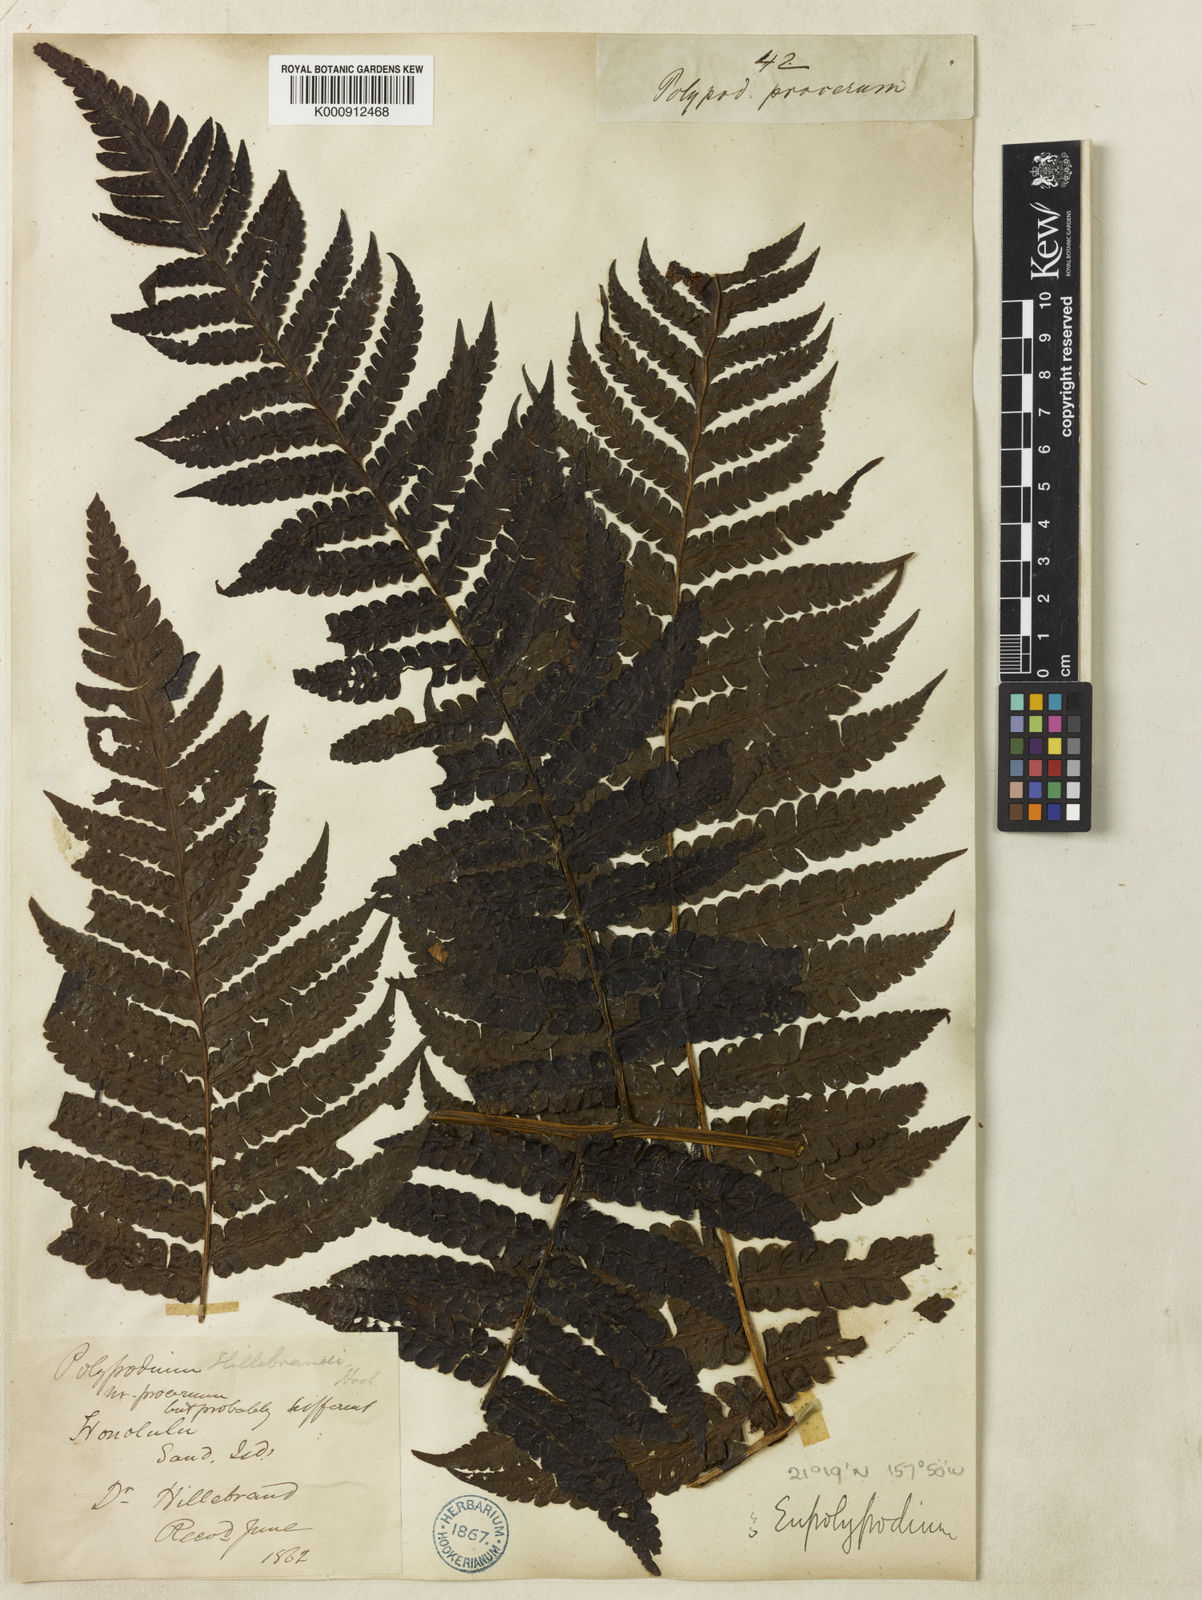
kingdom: Plantae
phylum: Tracheophyta
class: Polypodiopsida
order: Polypodiales
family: Dryopteridaceae
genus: Ctenitis
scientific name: Ctenitis latifrons
